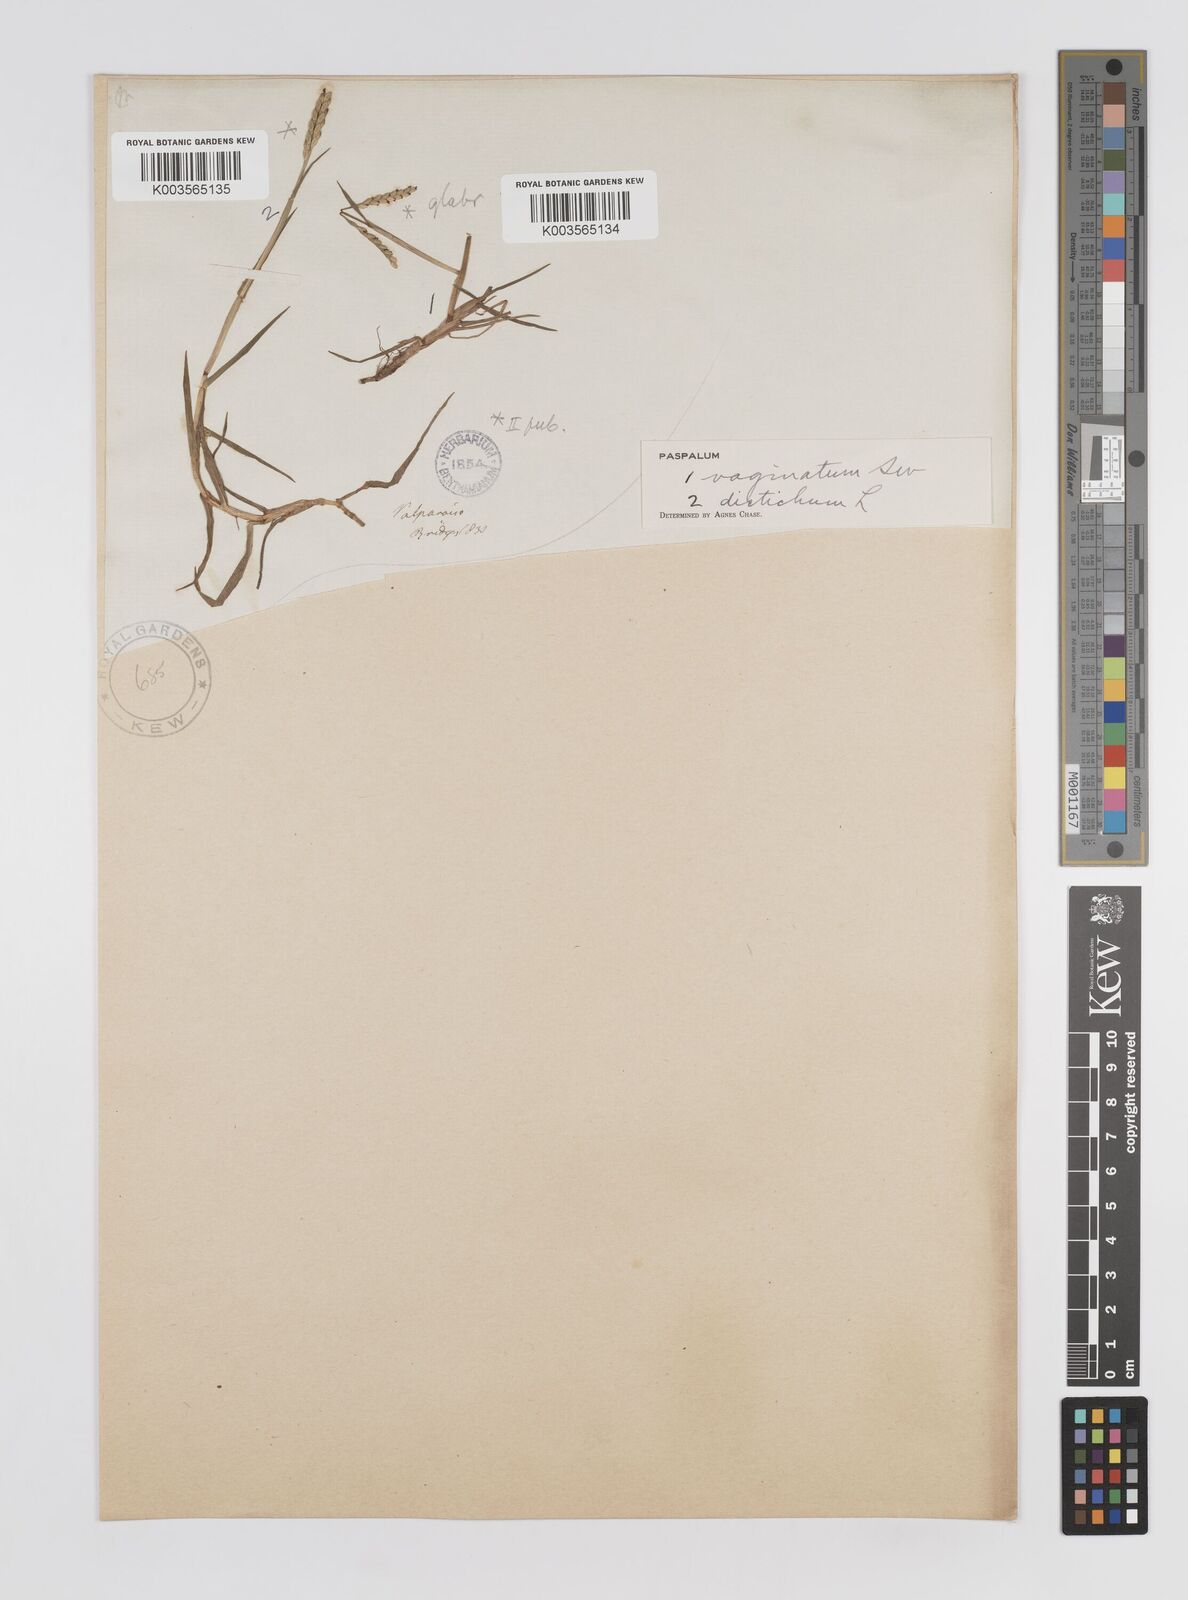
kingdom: Plantae
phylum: Tracheophyta
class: Liliopsida
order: Poales
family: Poaceae
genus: Paspalum
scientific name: Paspalum distichum
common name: Knotgrass
